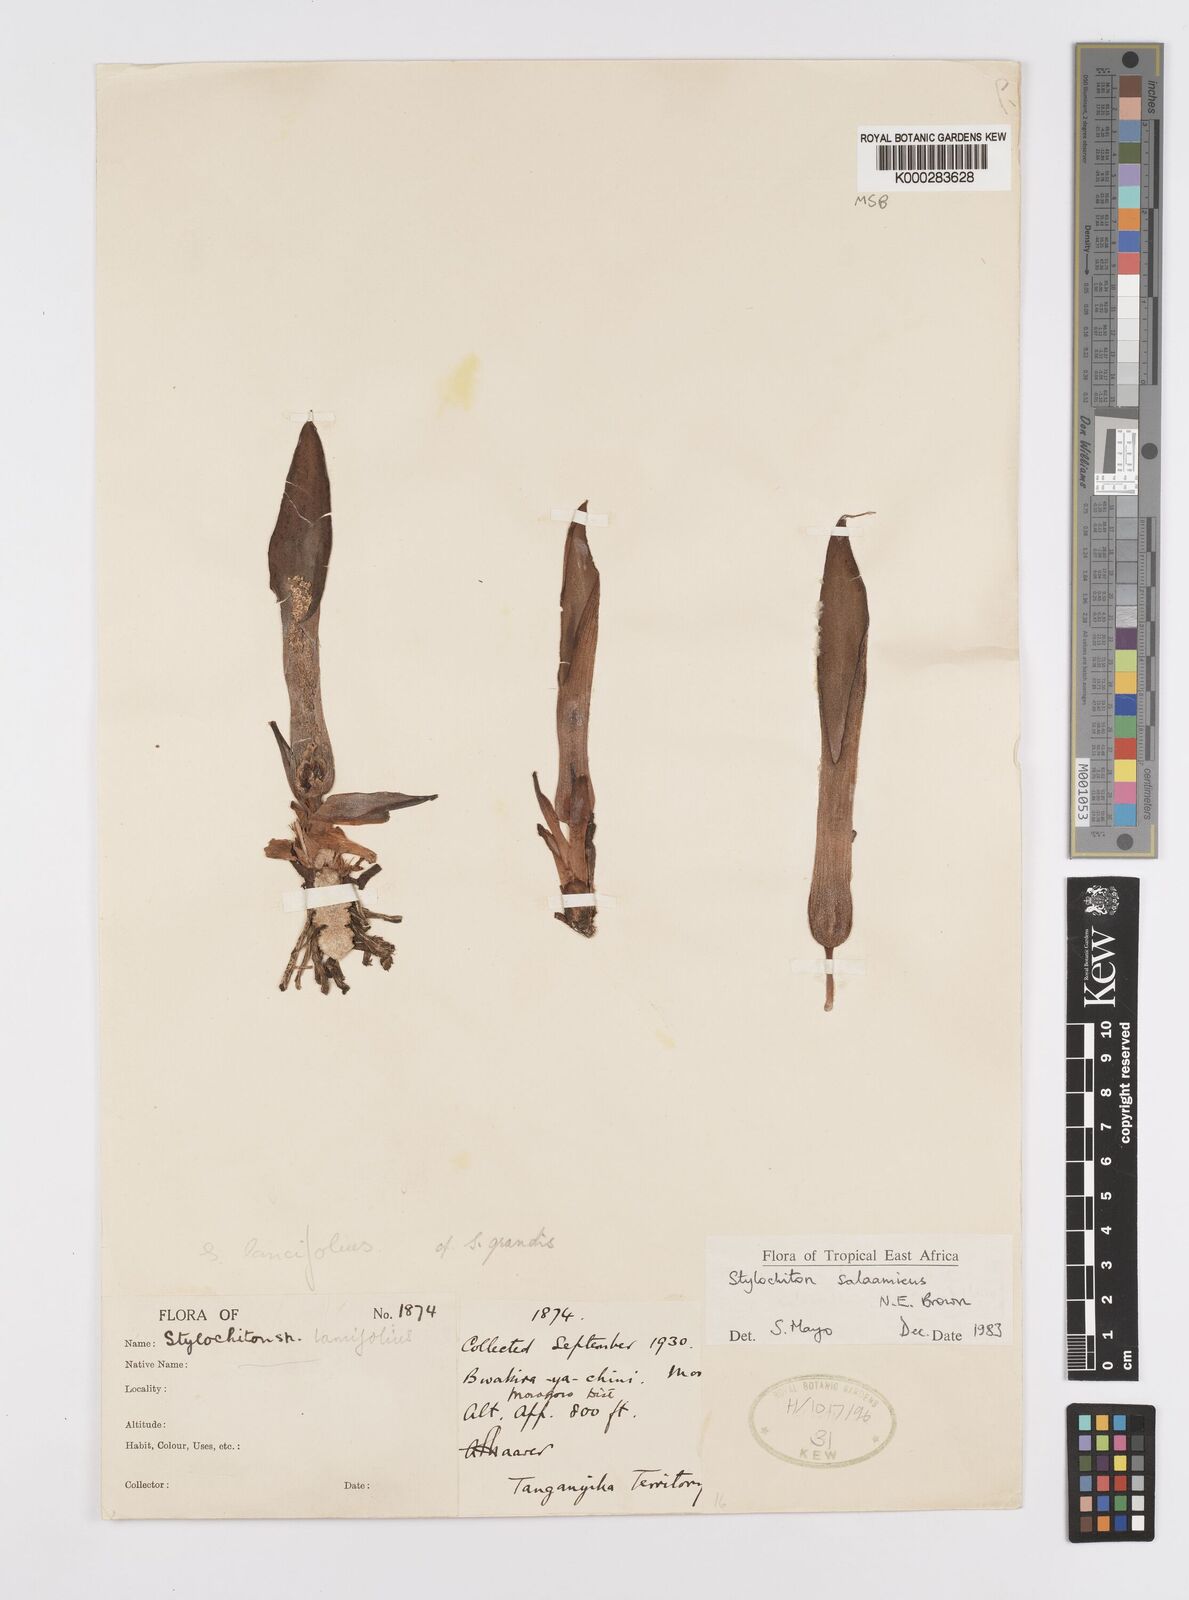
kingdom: Plantae
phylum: Tracheophyta
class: Liliopsida
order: Alismatales
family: Araceae
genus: Stylochaeton
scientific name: Stylochaeton salaamicum
